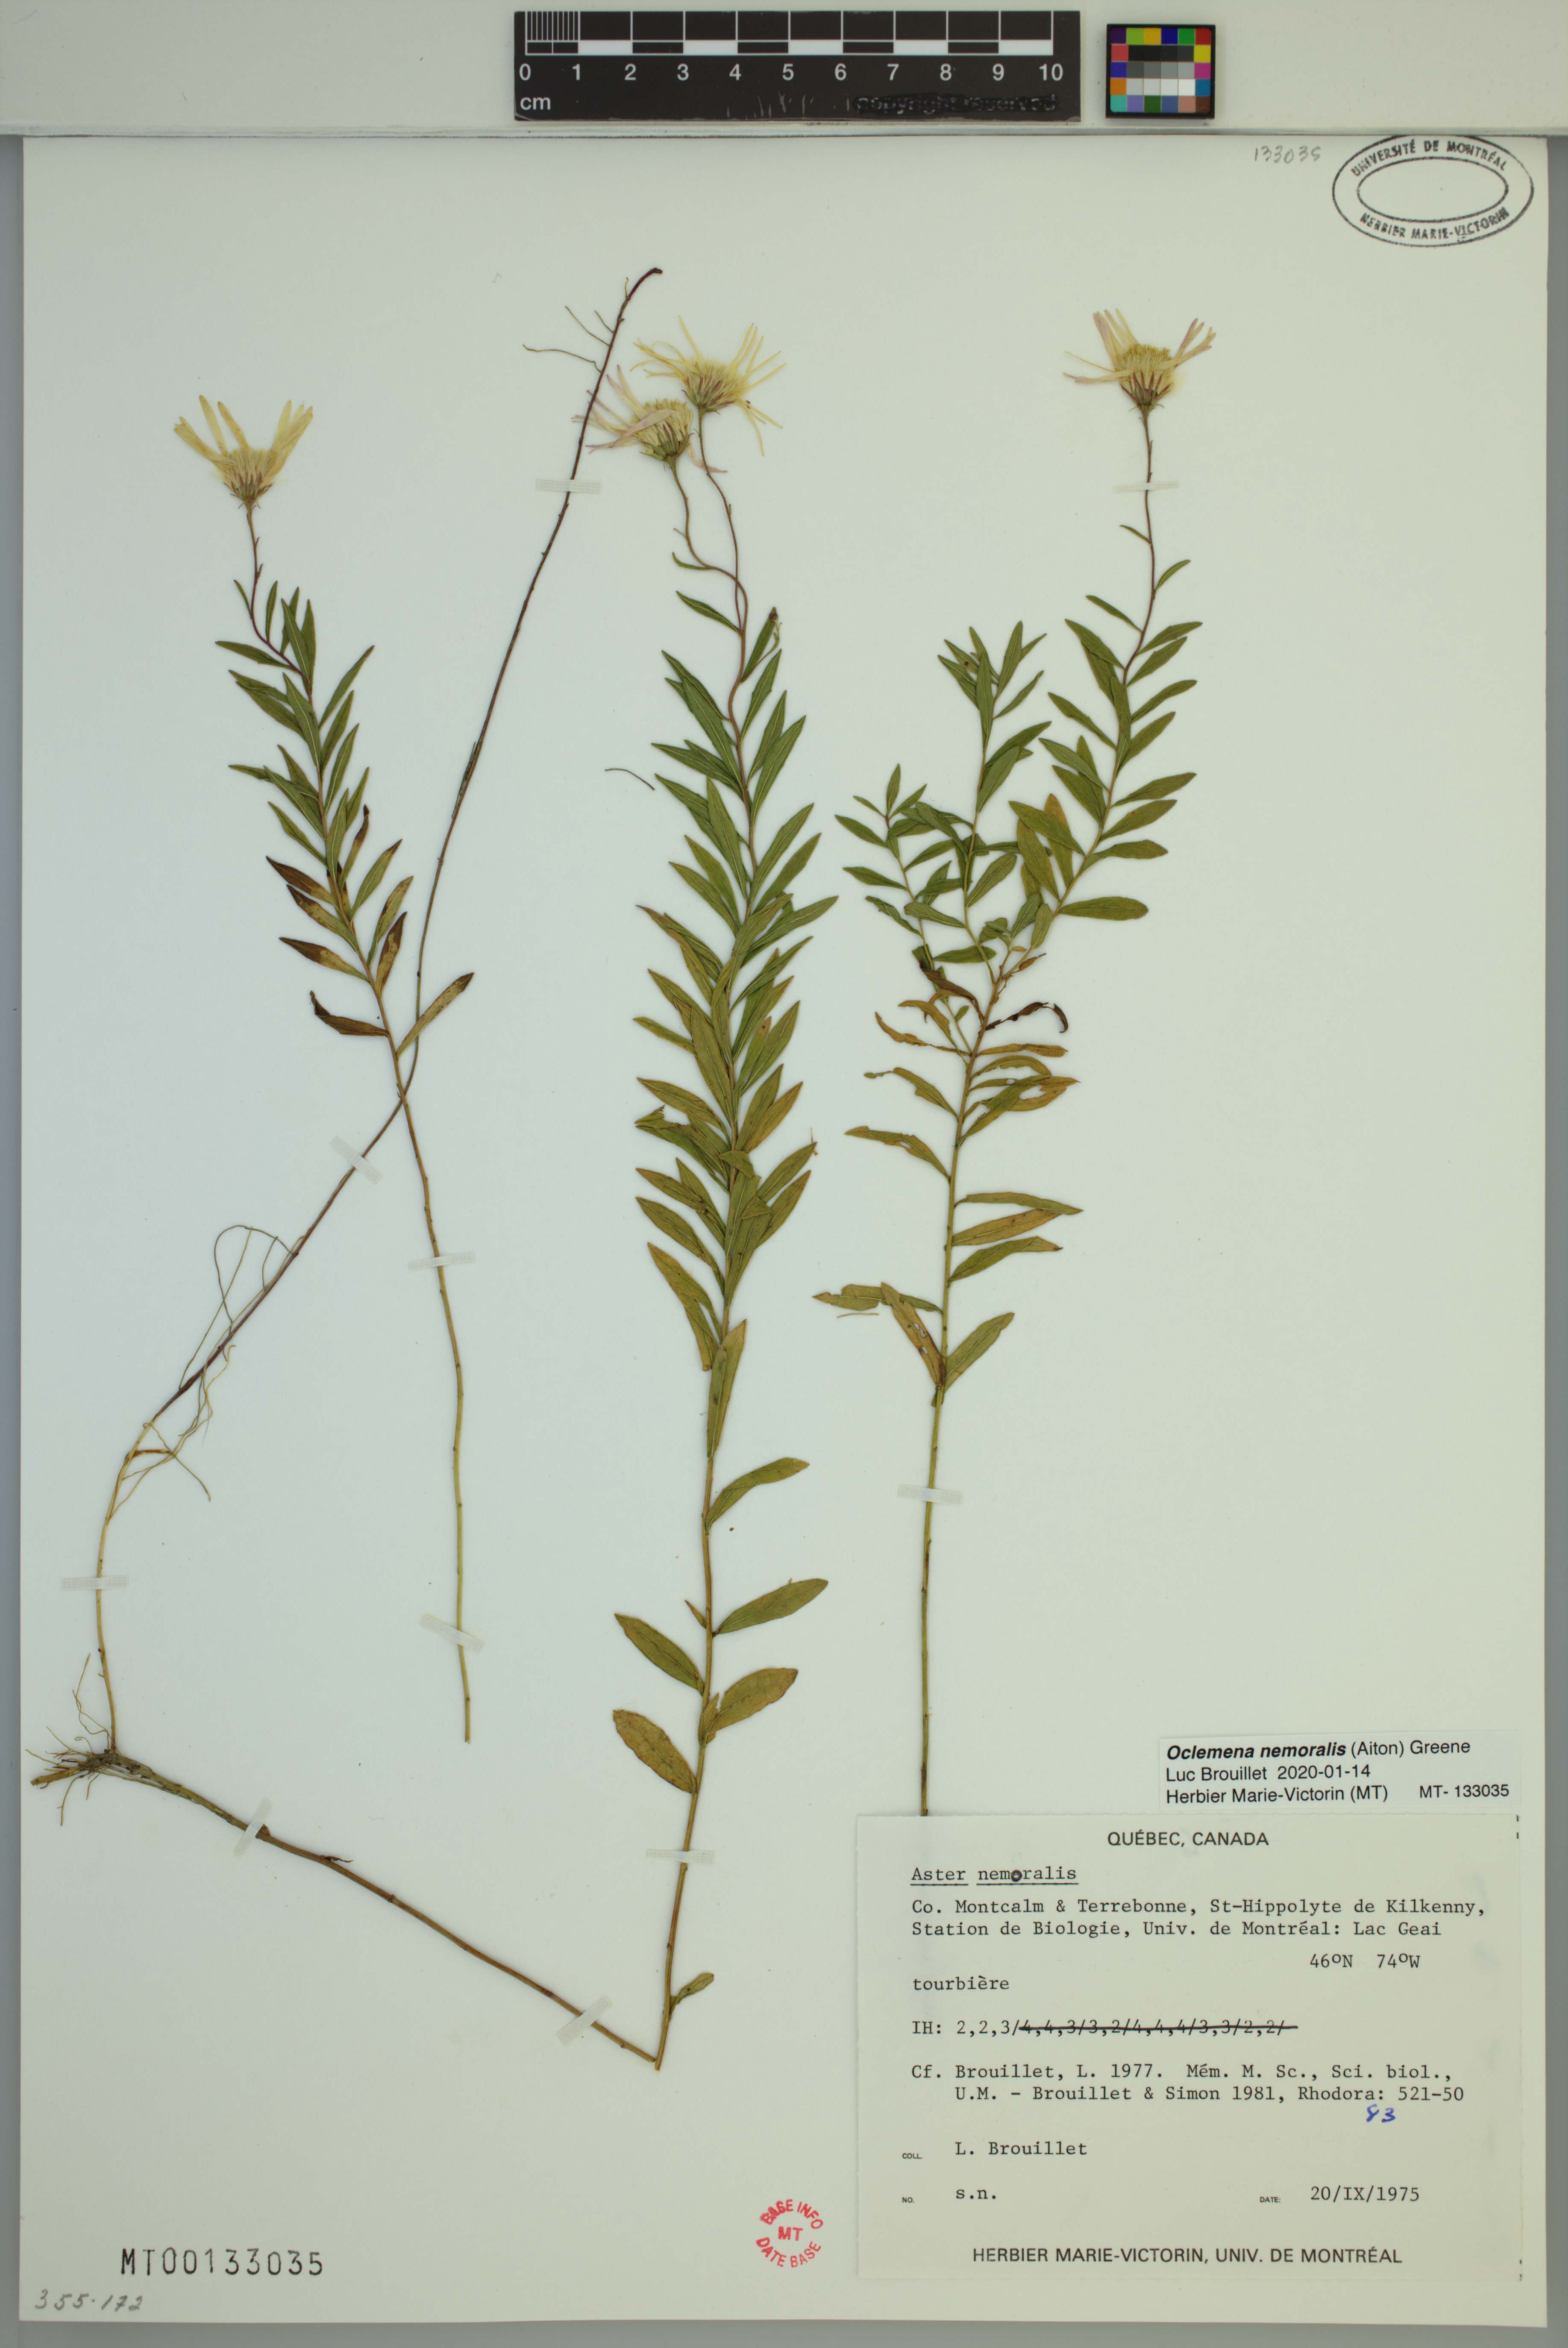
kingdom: Plantae
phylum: Tracheophyta
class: Magnoliopsida
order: Asterales
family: Asteraceae
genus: Oclemena
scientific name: Oclemena nemoralis
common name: Bog aster
